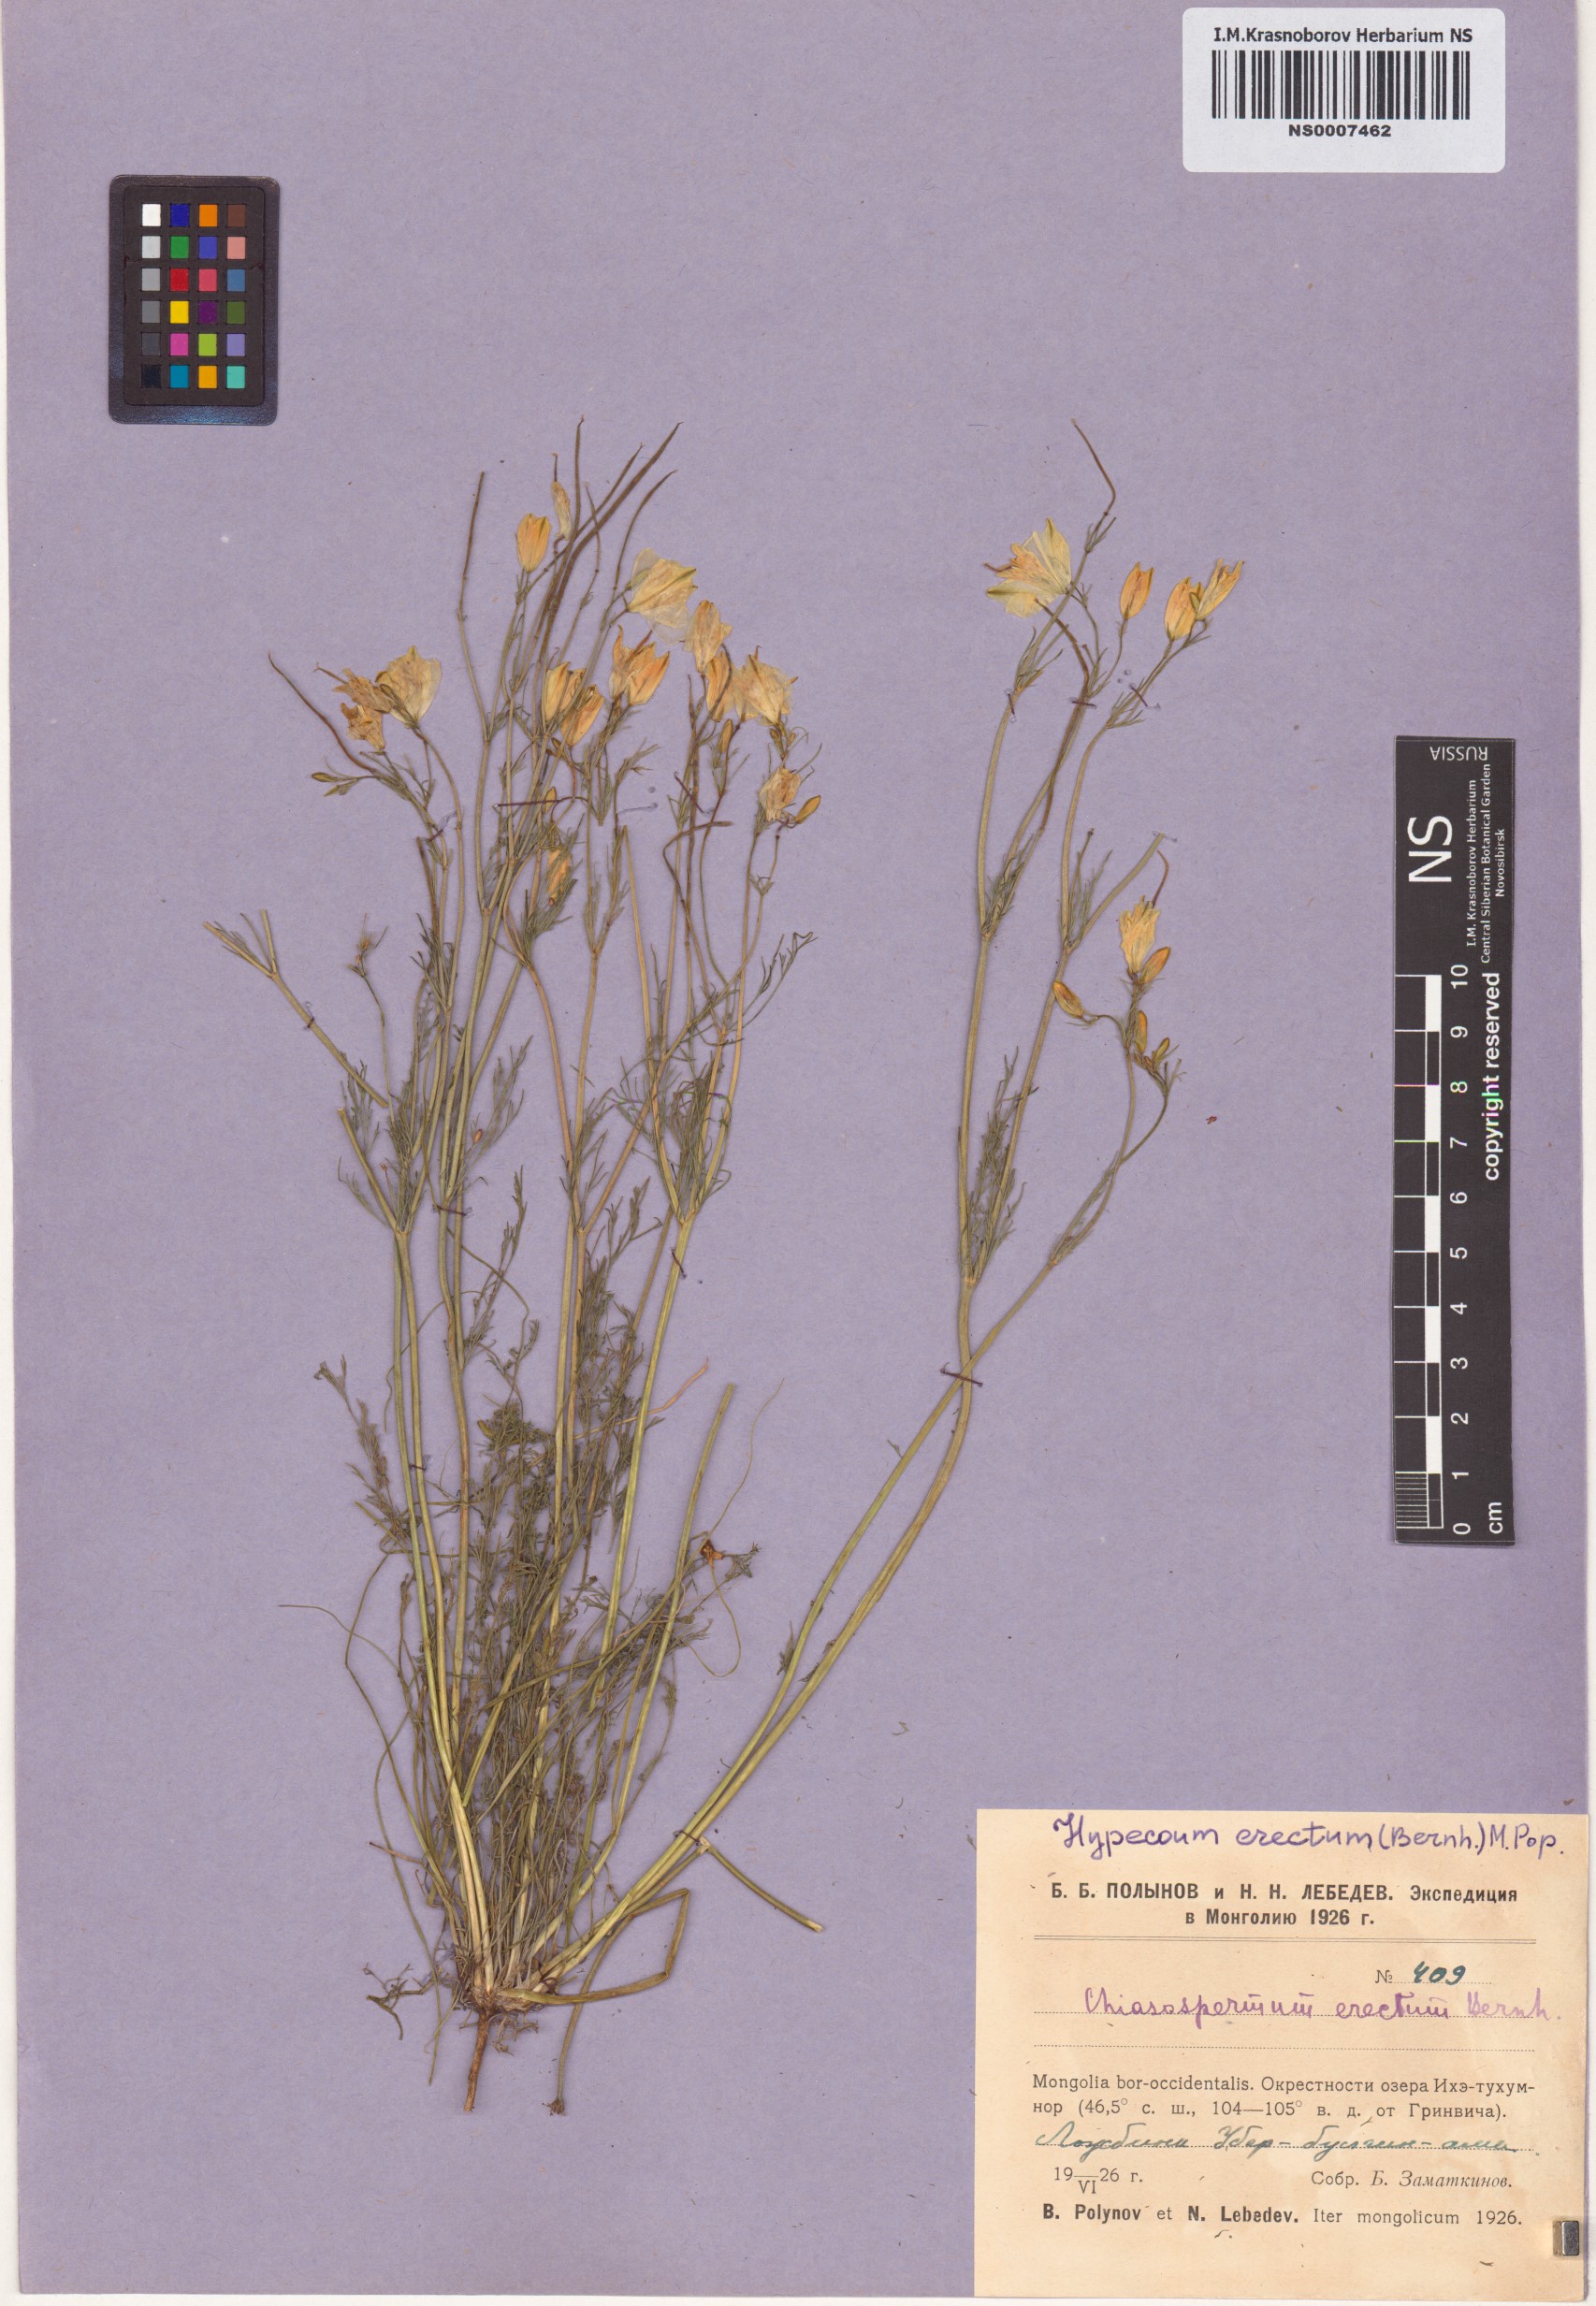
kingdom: Plantae
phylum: Tracheophyta
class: Magnoliopsida
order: Ranunculales
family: Papaveraceae
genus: Hypecoum
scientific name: Hypecoum erectum
